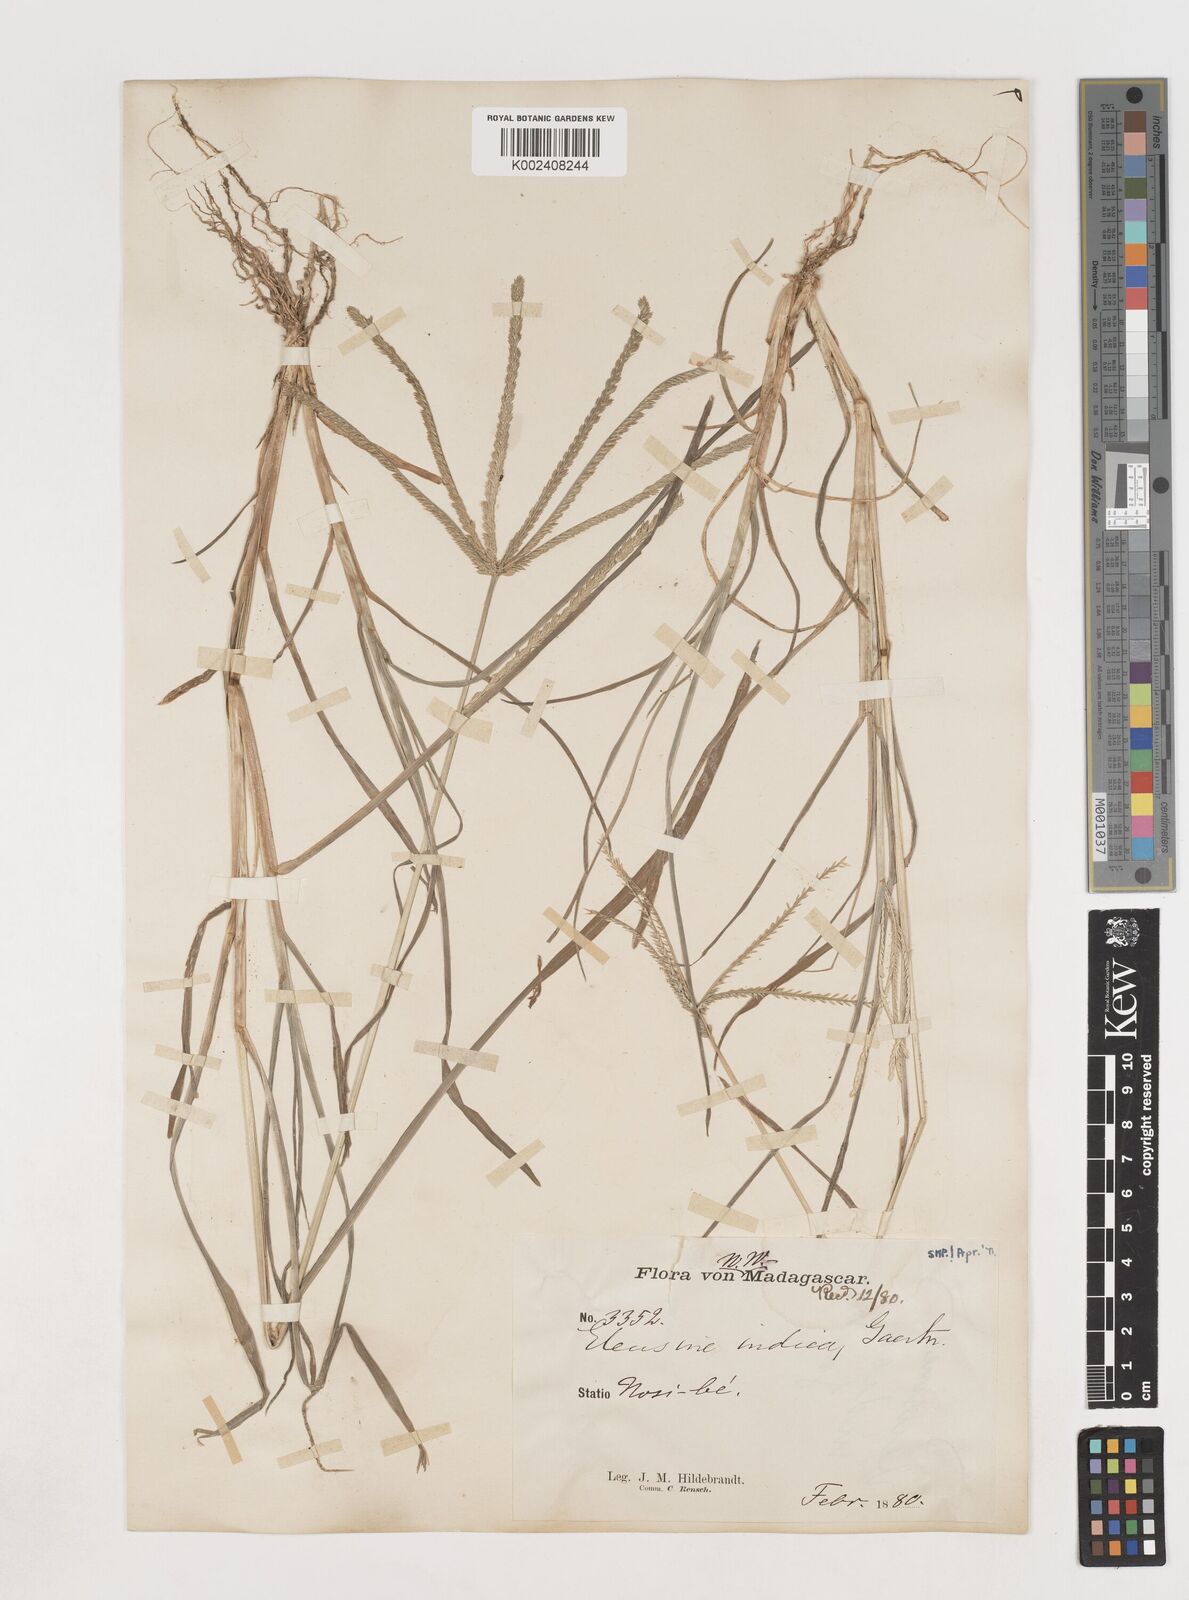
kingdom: Plantae
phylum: Tracheophyta
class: Liliopsida
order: Poales
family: Poaceae
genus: Eleusine
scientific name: Eleusine indica
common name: Yard-grass
